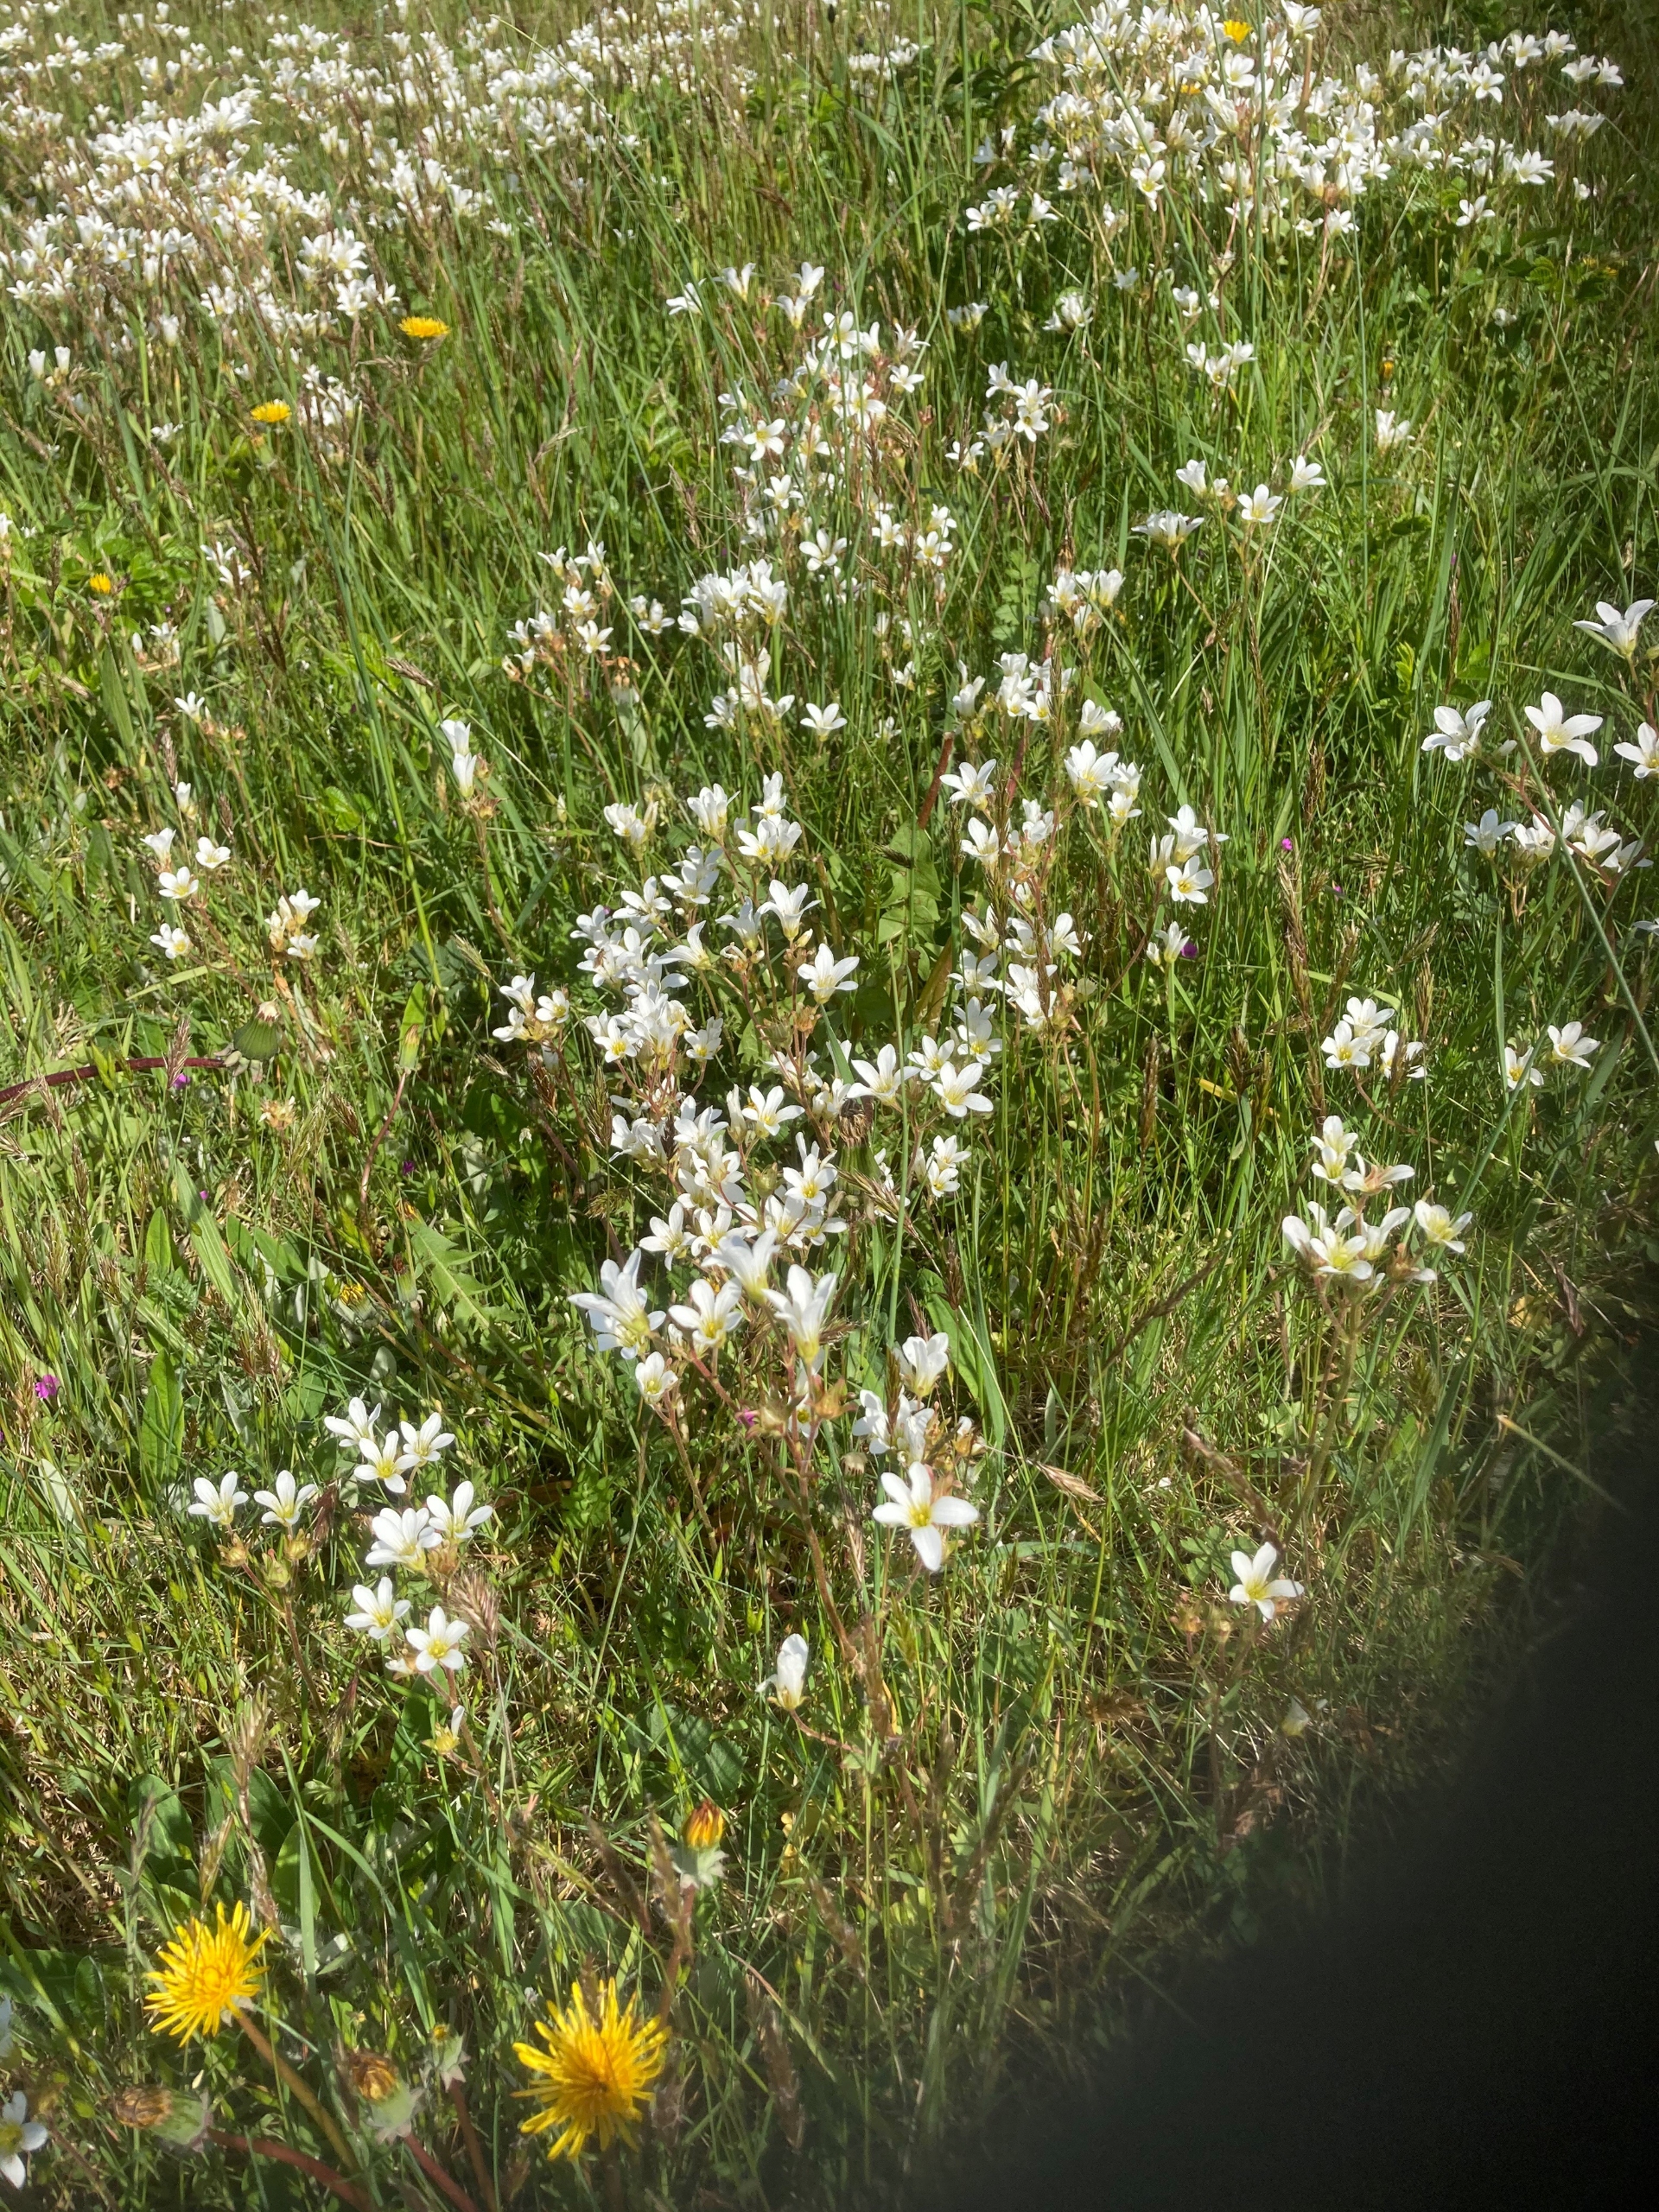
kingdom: Plantae
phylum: Tracheophyta
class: Magnoliopsida
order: Saxifragales
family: Saxifragaceae
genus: Saxifraga
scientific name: Saxifraga granulata
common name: Kornet stenbræk
